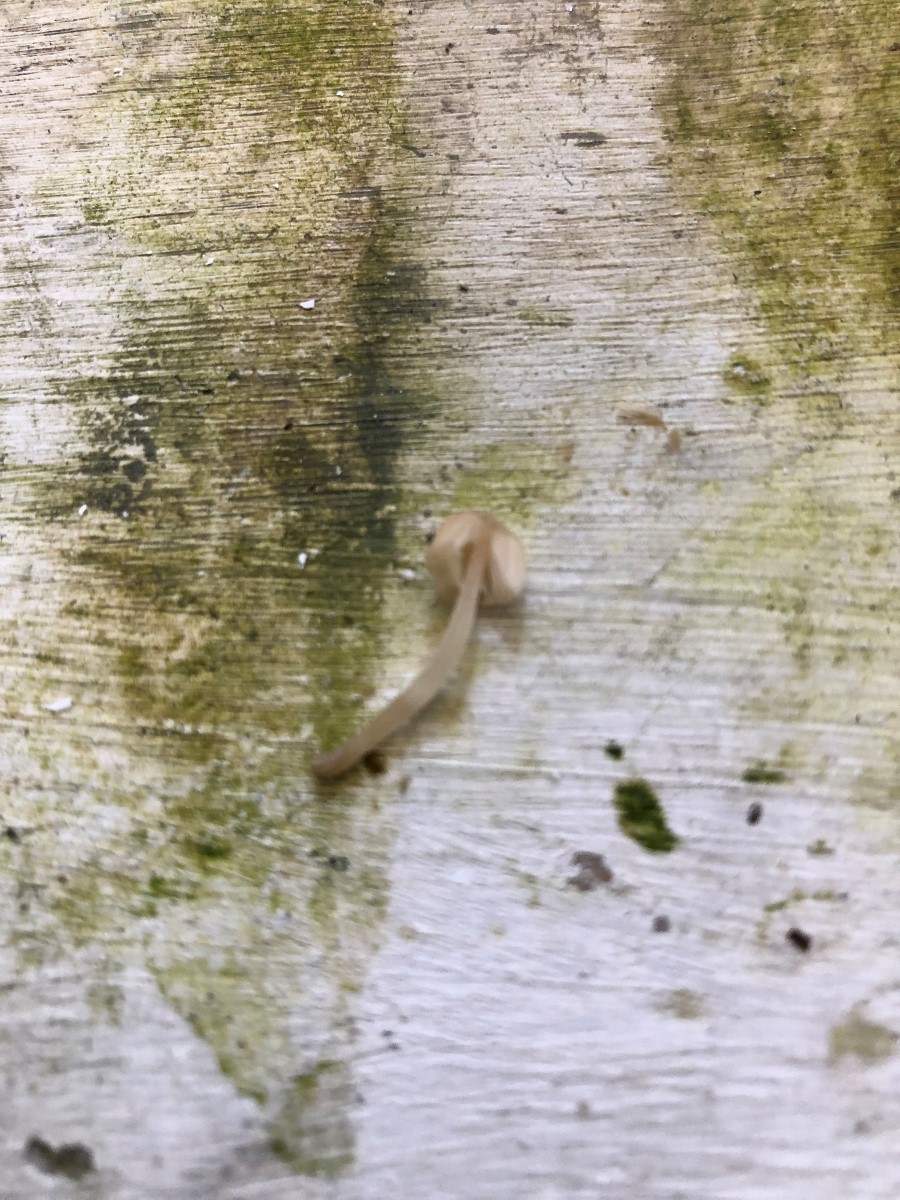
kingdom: Fungi
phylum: Basidiomycota
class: Agaricomycetes
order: Agaricales
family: Psathyrellaceae
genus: Coprinellus
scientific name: Coprinellus disseminatus
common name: bredsået blækhat
